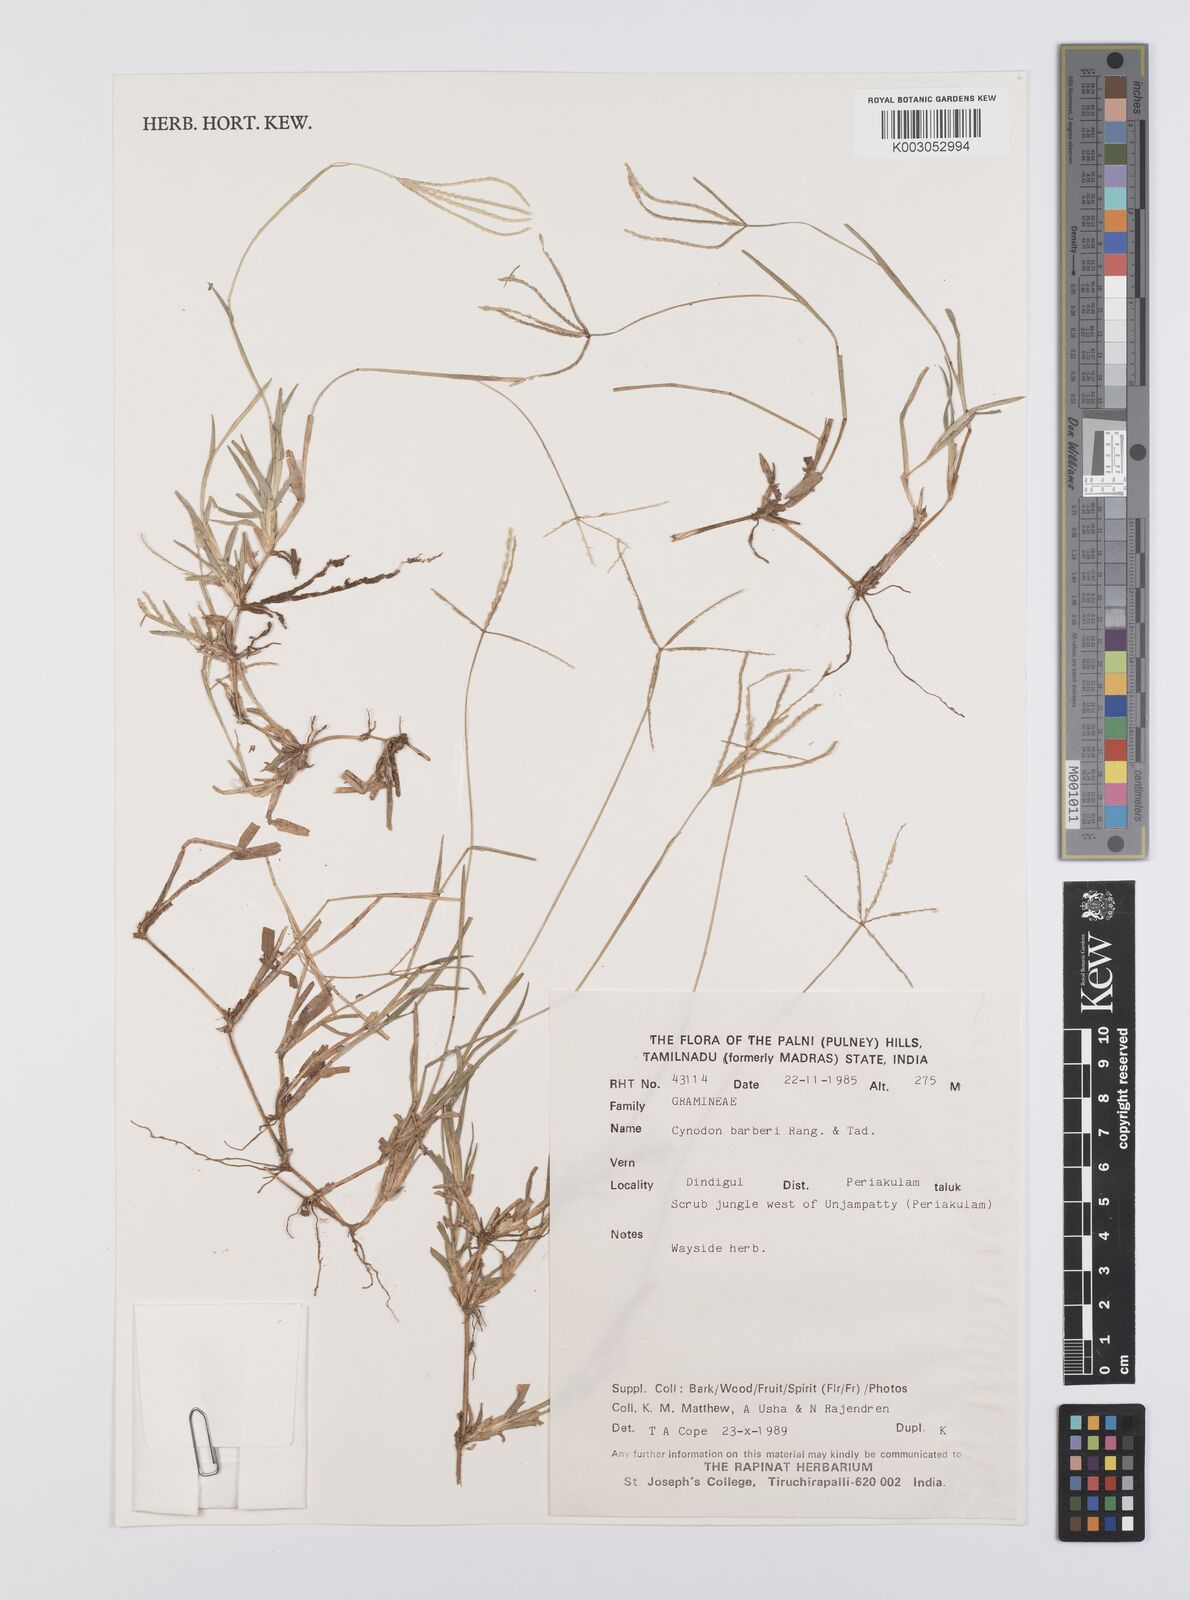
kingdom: Plantae
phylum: Tracheophyta
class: Liliopsida
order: Poales
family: Poaceae
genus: Cynodon
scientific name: Cynodon barberi
